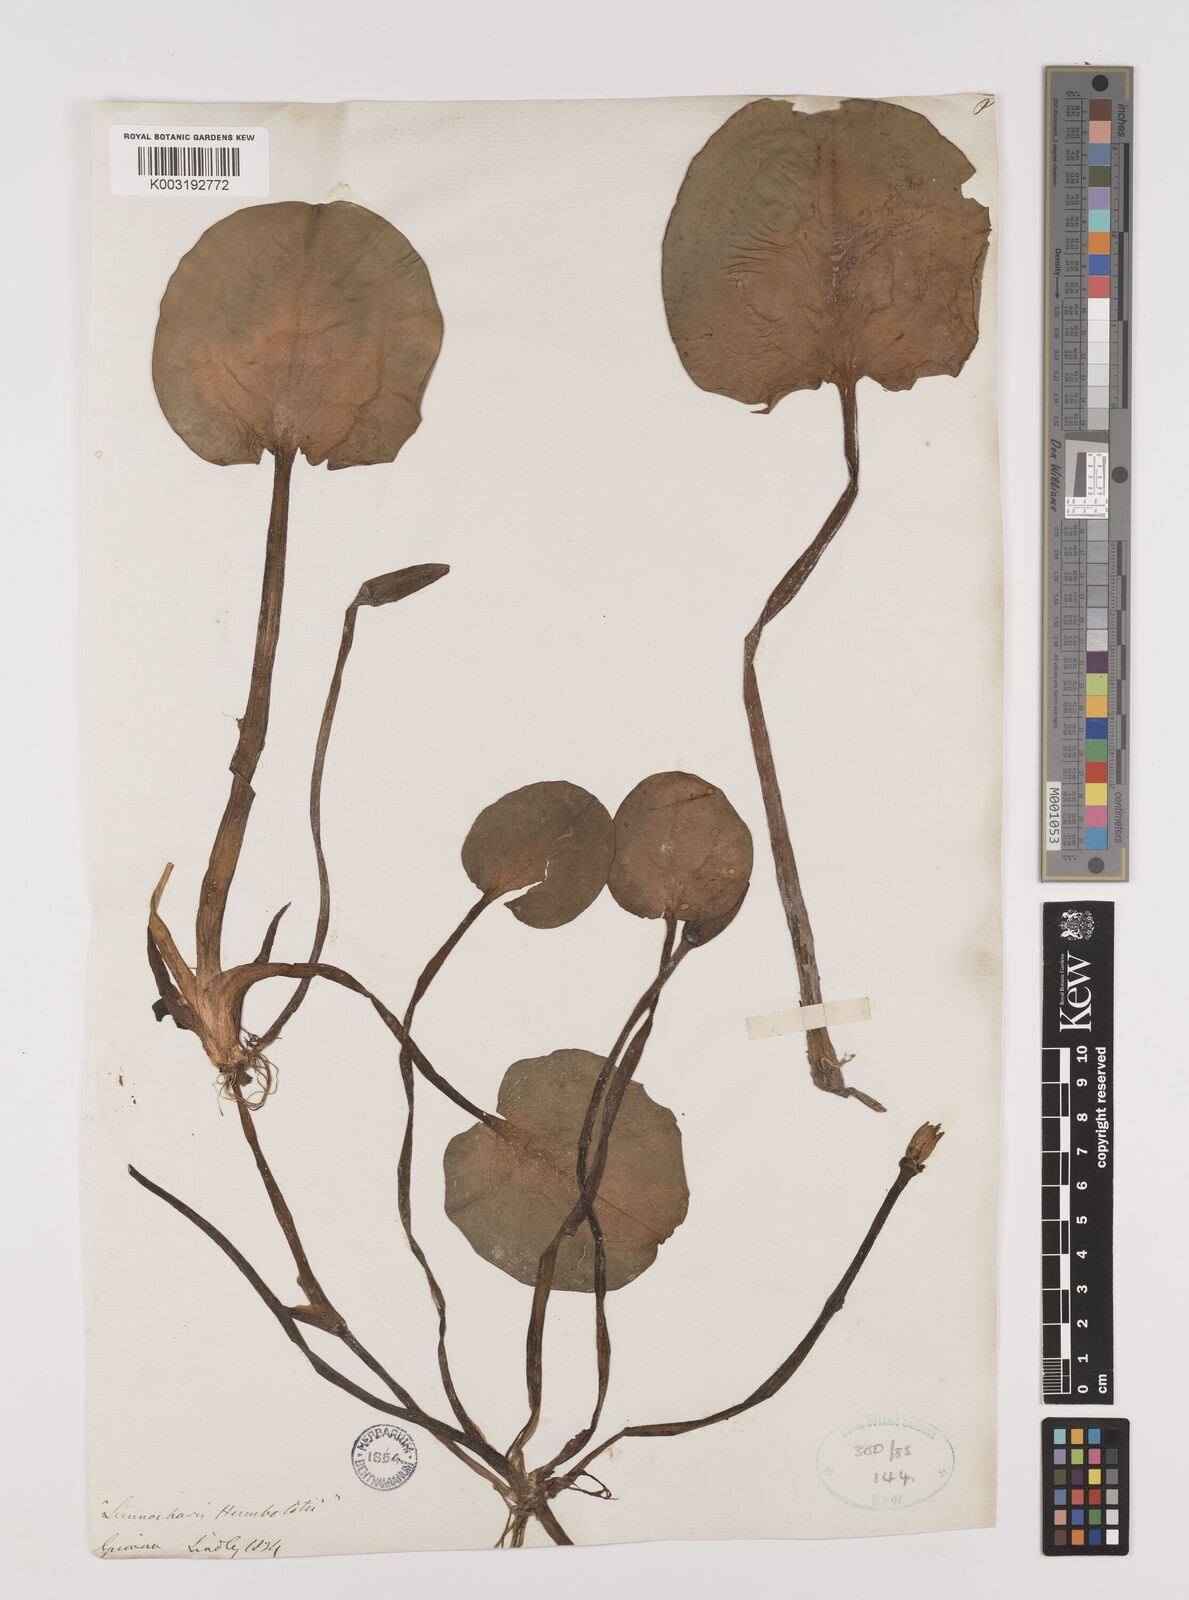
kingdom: Plantae
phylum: Tracheophyta
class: Liliopsida
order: Alismatales
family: Alismataceae
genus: Hydrocleys
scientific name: Hydrocleys nymphoides
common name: Water-poppy
